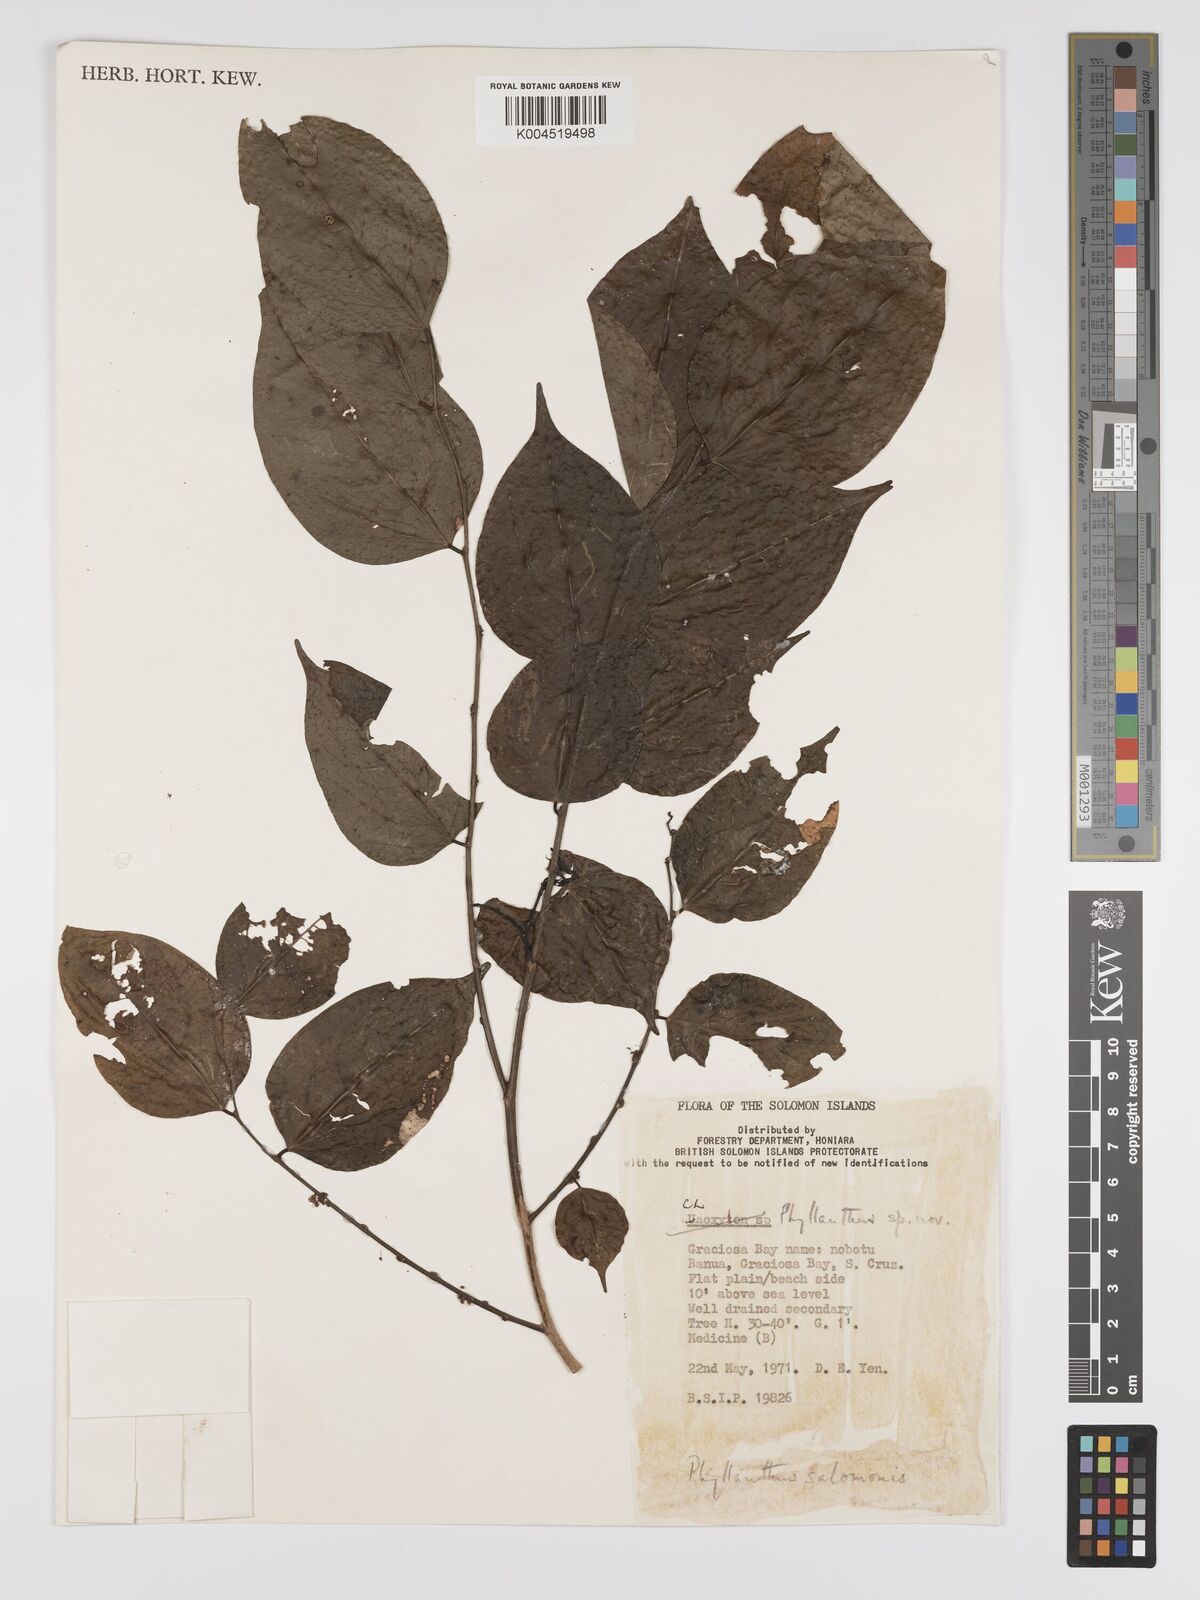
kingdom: Plantae
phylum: Tracheophyta
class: Magnoliopsida
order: Malpighiales
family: Phyllanthaceae
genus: Phyllanthus
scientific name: Phyllanthus salomonis
